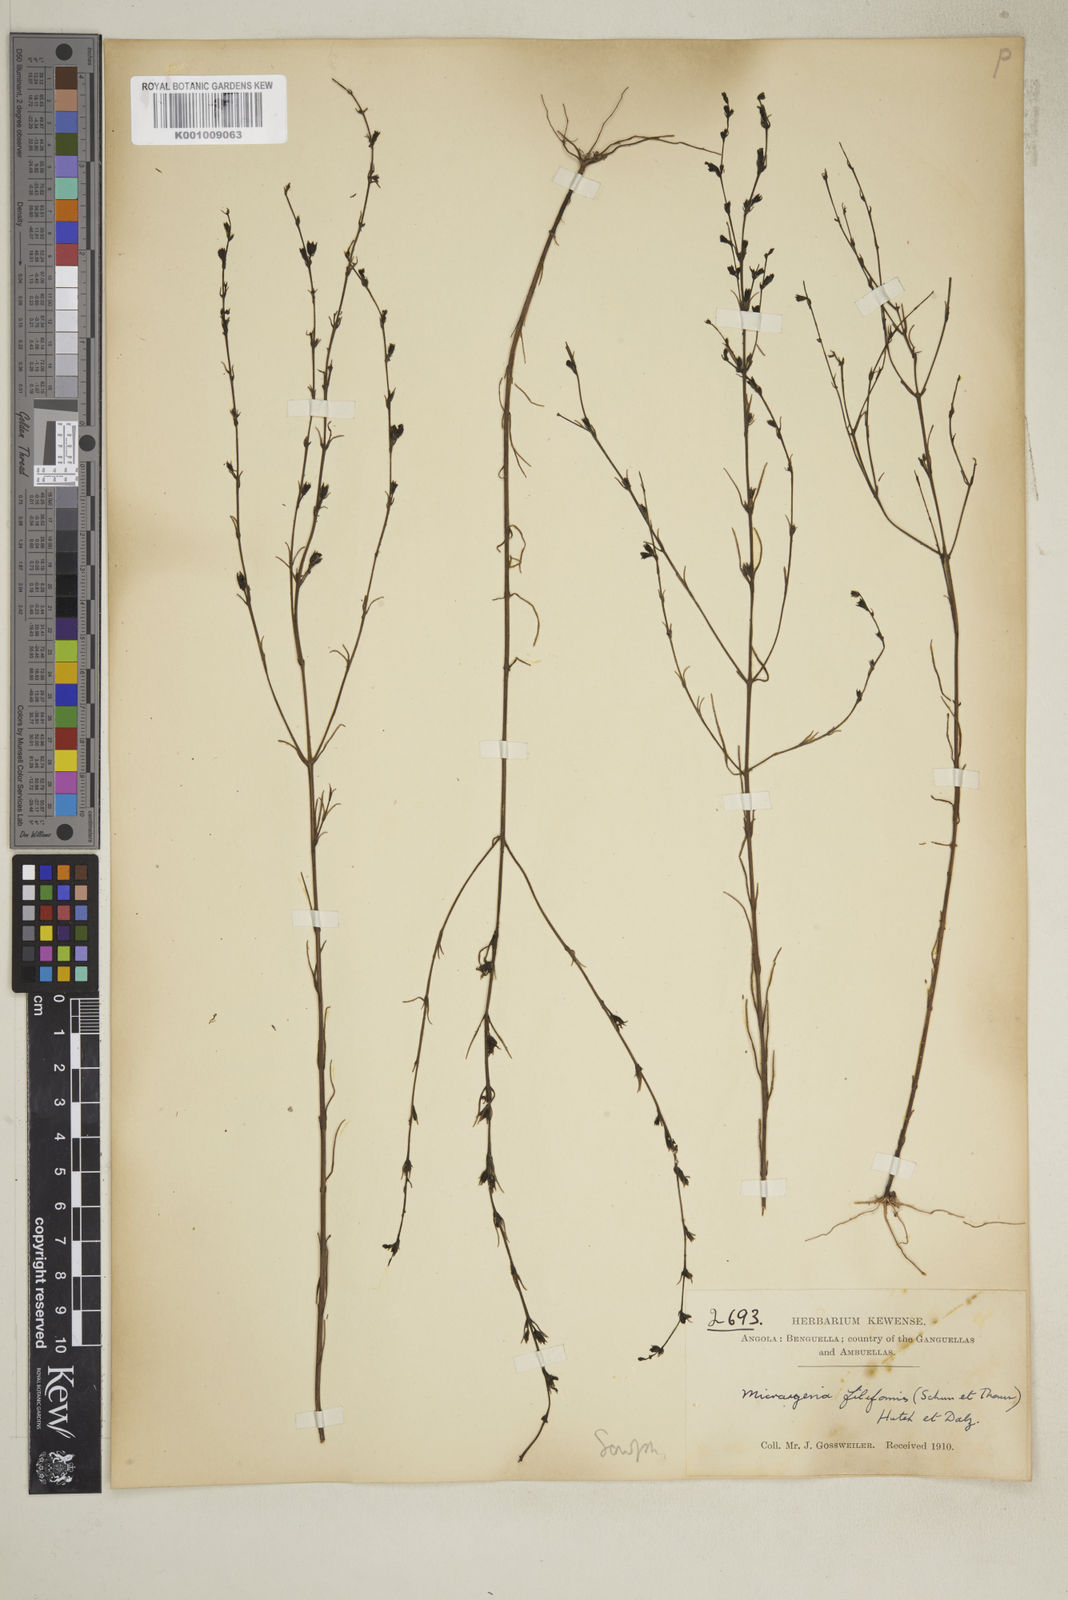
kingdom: Plantae
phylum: Tracheophyta
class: Magnoliopsida
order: Lamiales
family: Orobanchaceae
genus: Micrargeria
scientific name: Micrargeria filiformis
